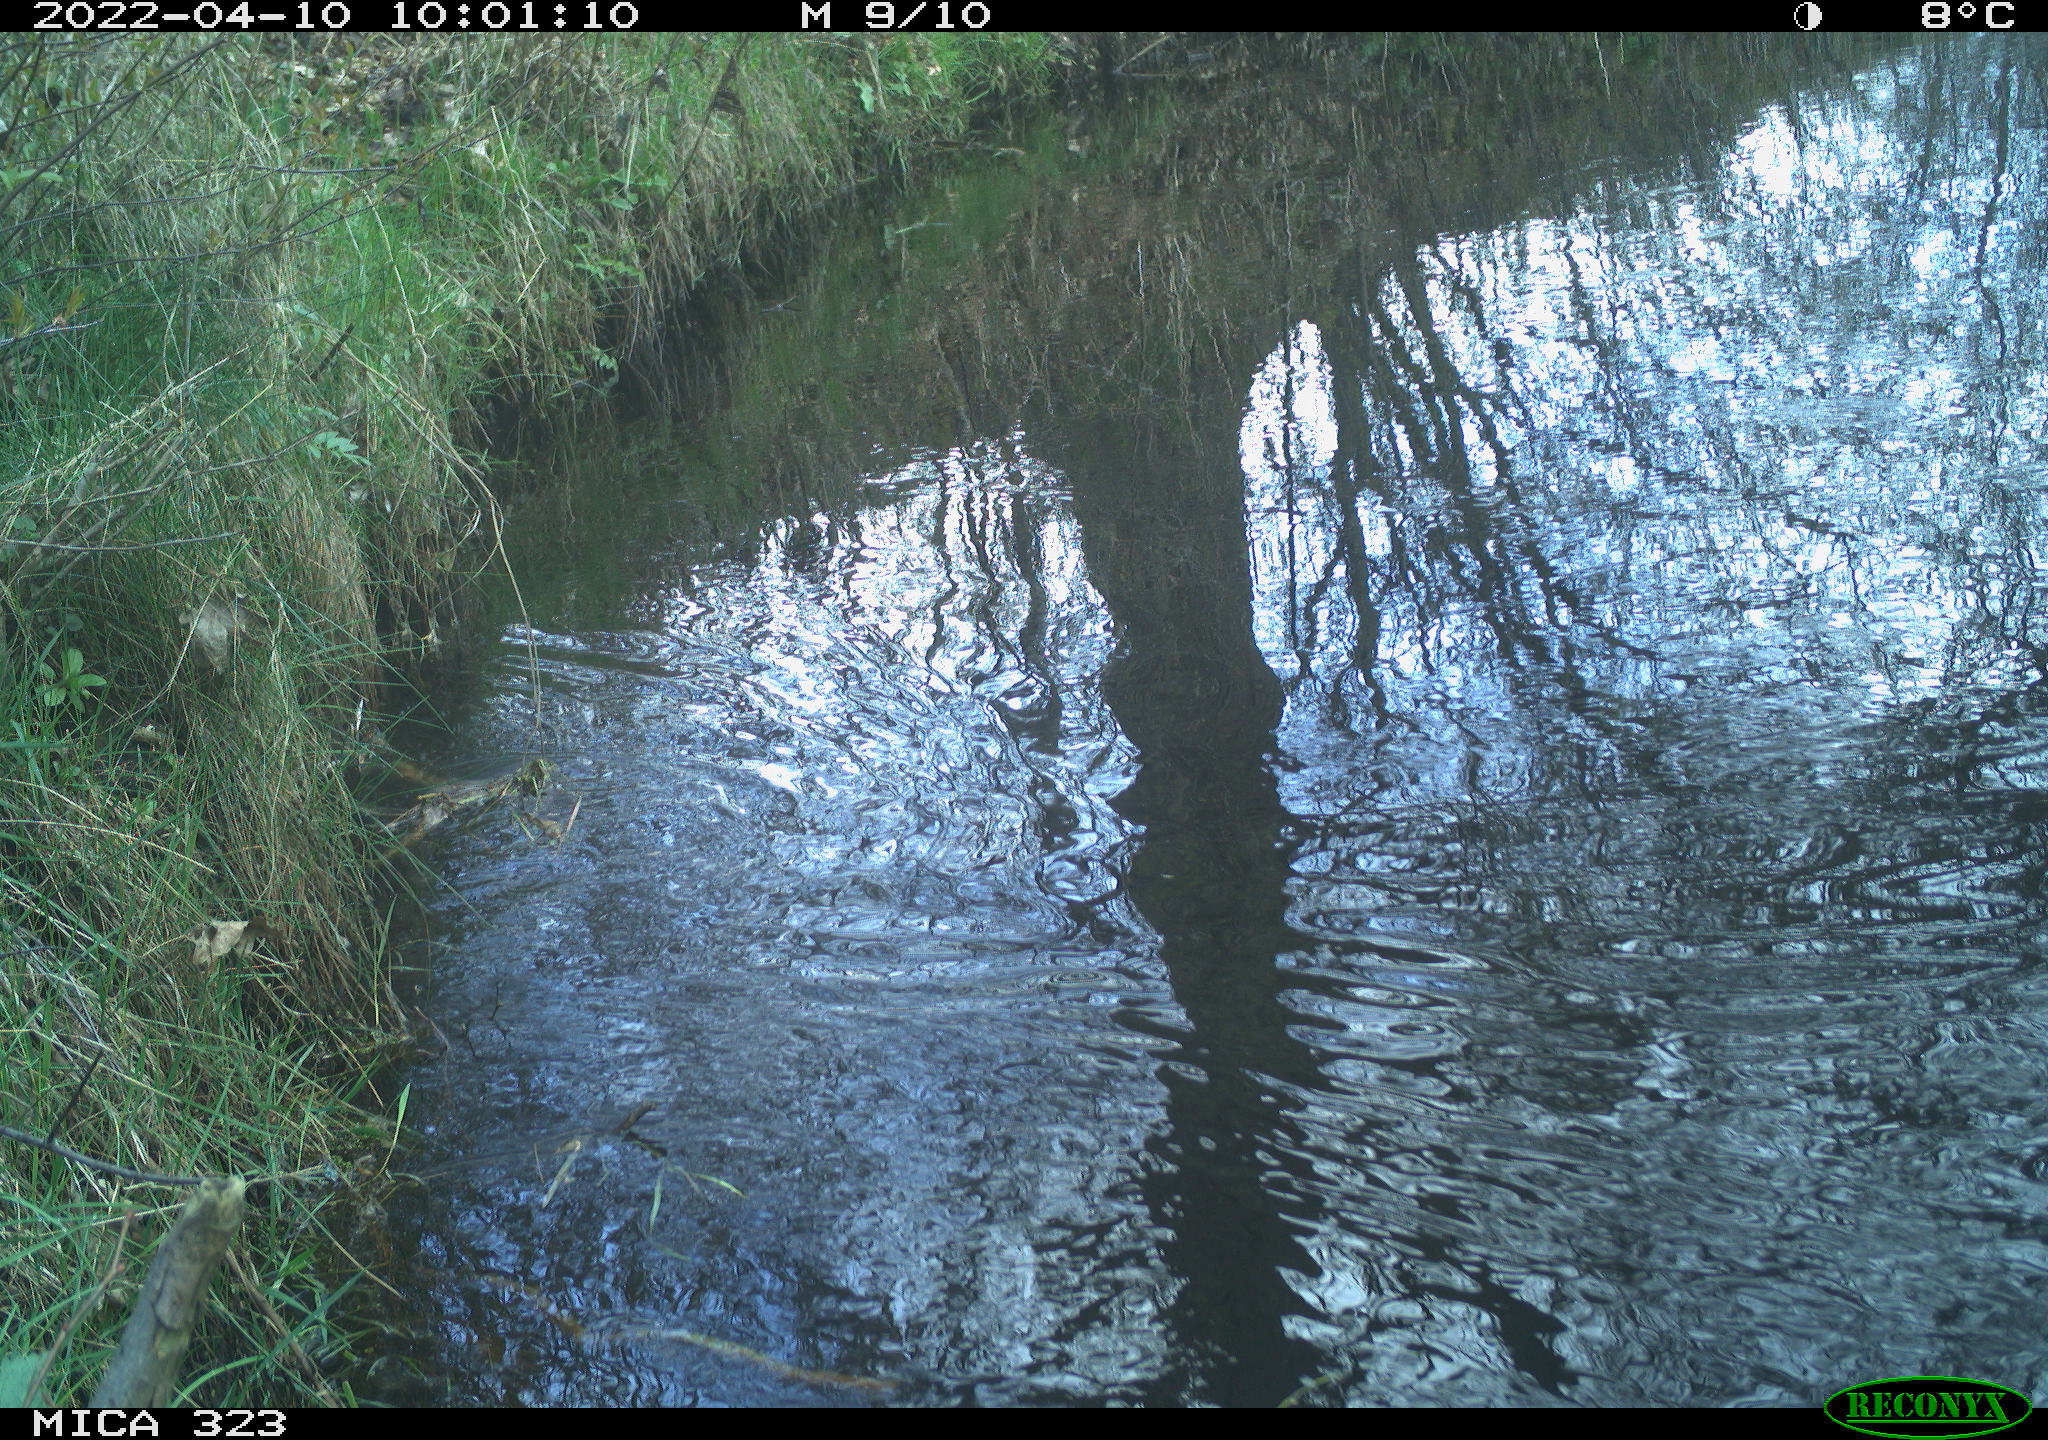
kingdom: Animalia
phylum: Chordata
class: Aves
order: Gruiformes
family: Rallidae
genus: Gallinula
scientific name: Gallinula chloropus
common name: Common moorhen
